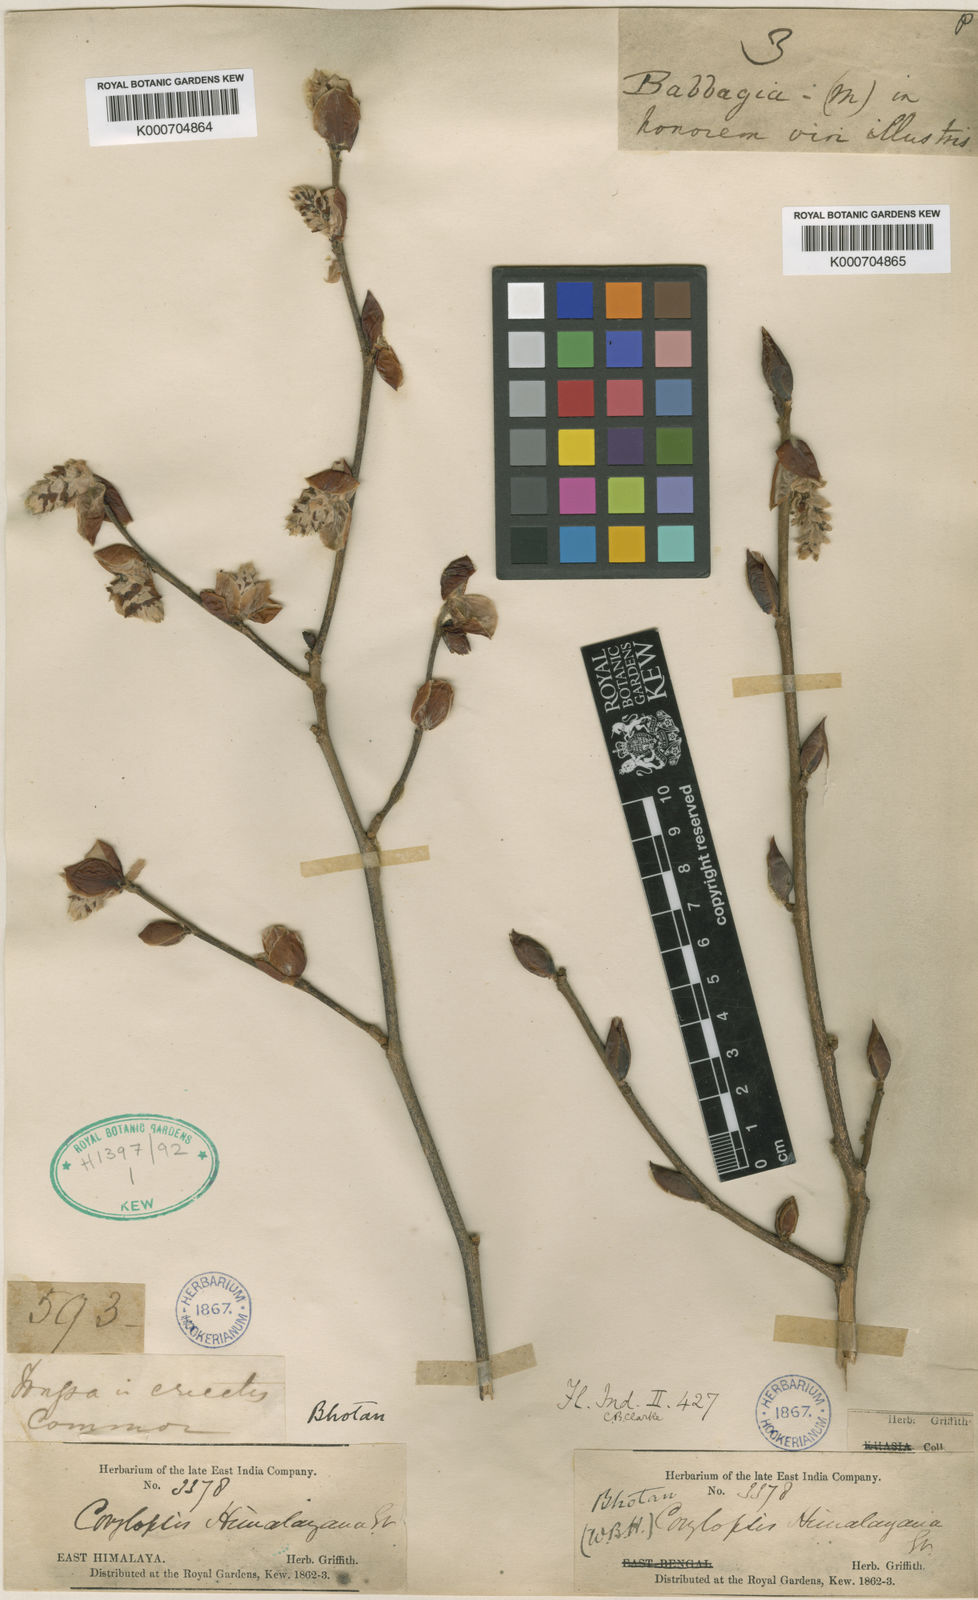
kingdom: Plantae
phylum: Tracheophyta
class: Magnoliopsida
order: Saxifragales
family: Hamamelidaceae
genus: Corylopsis
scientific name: Corylopsis himalayana
